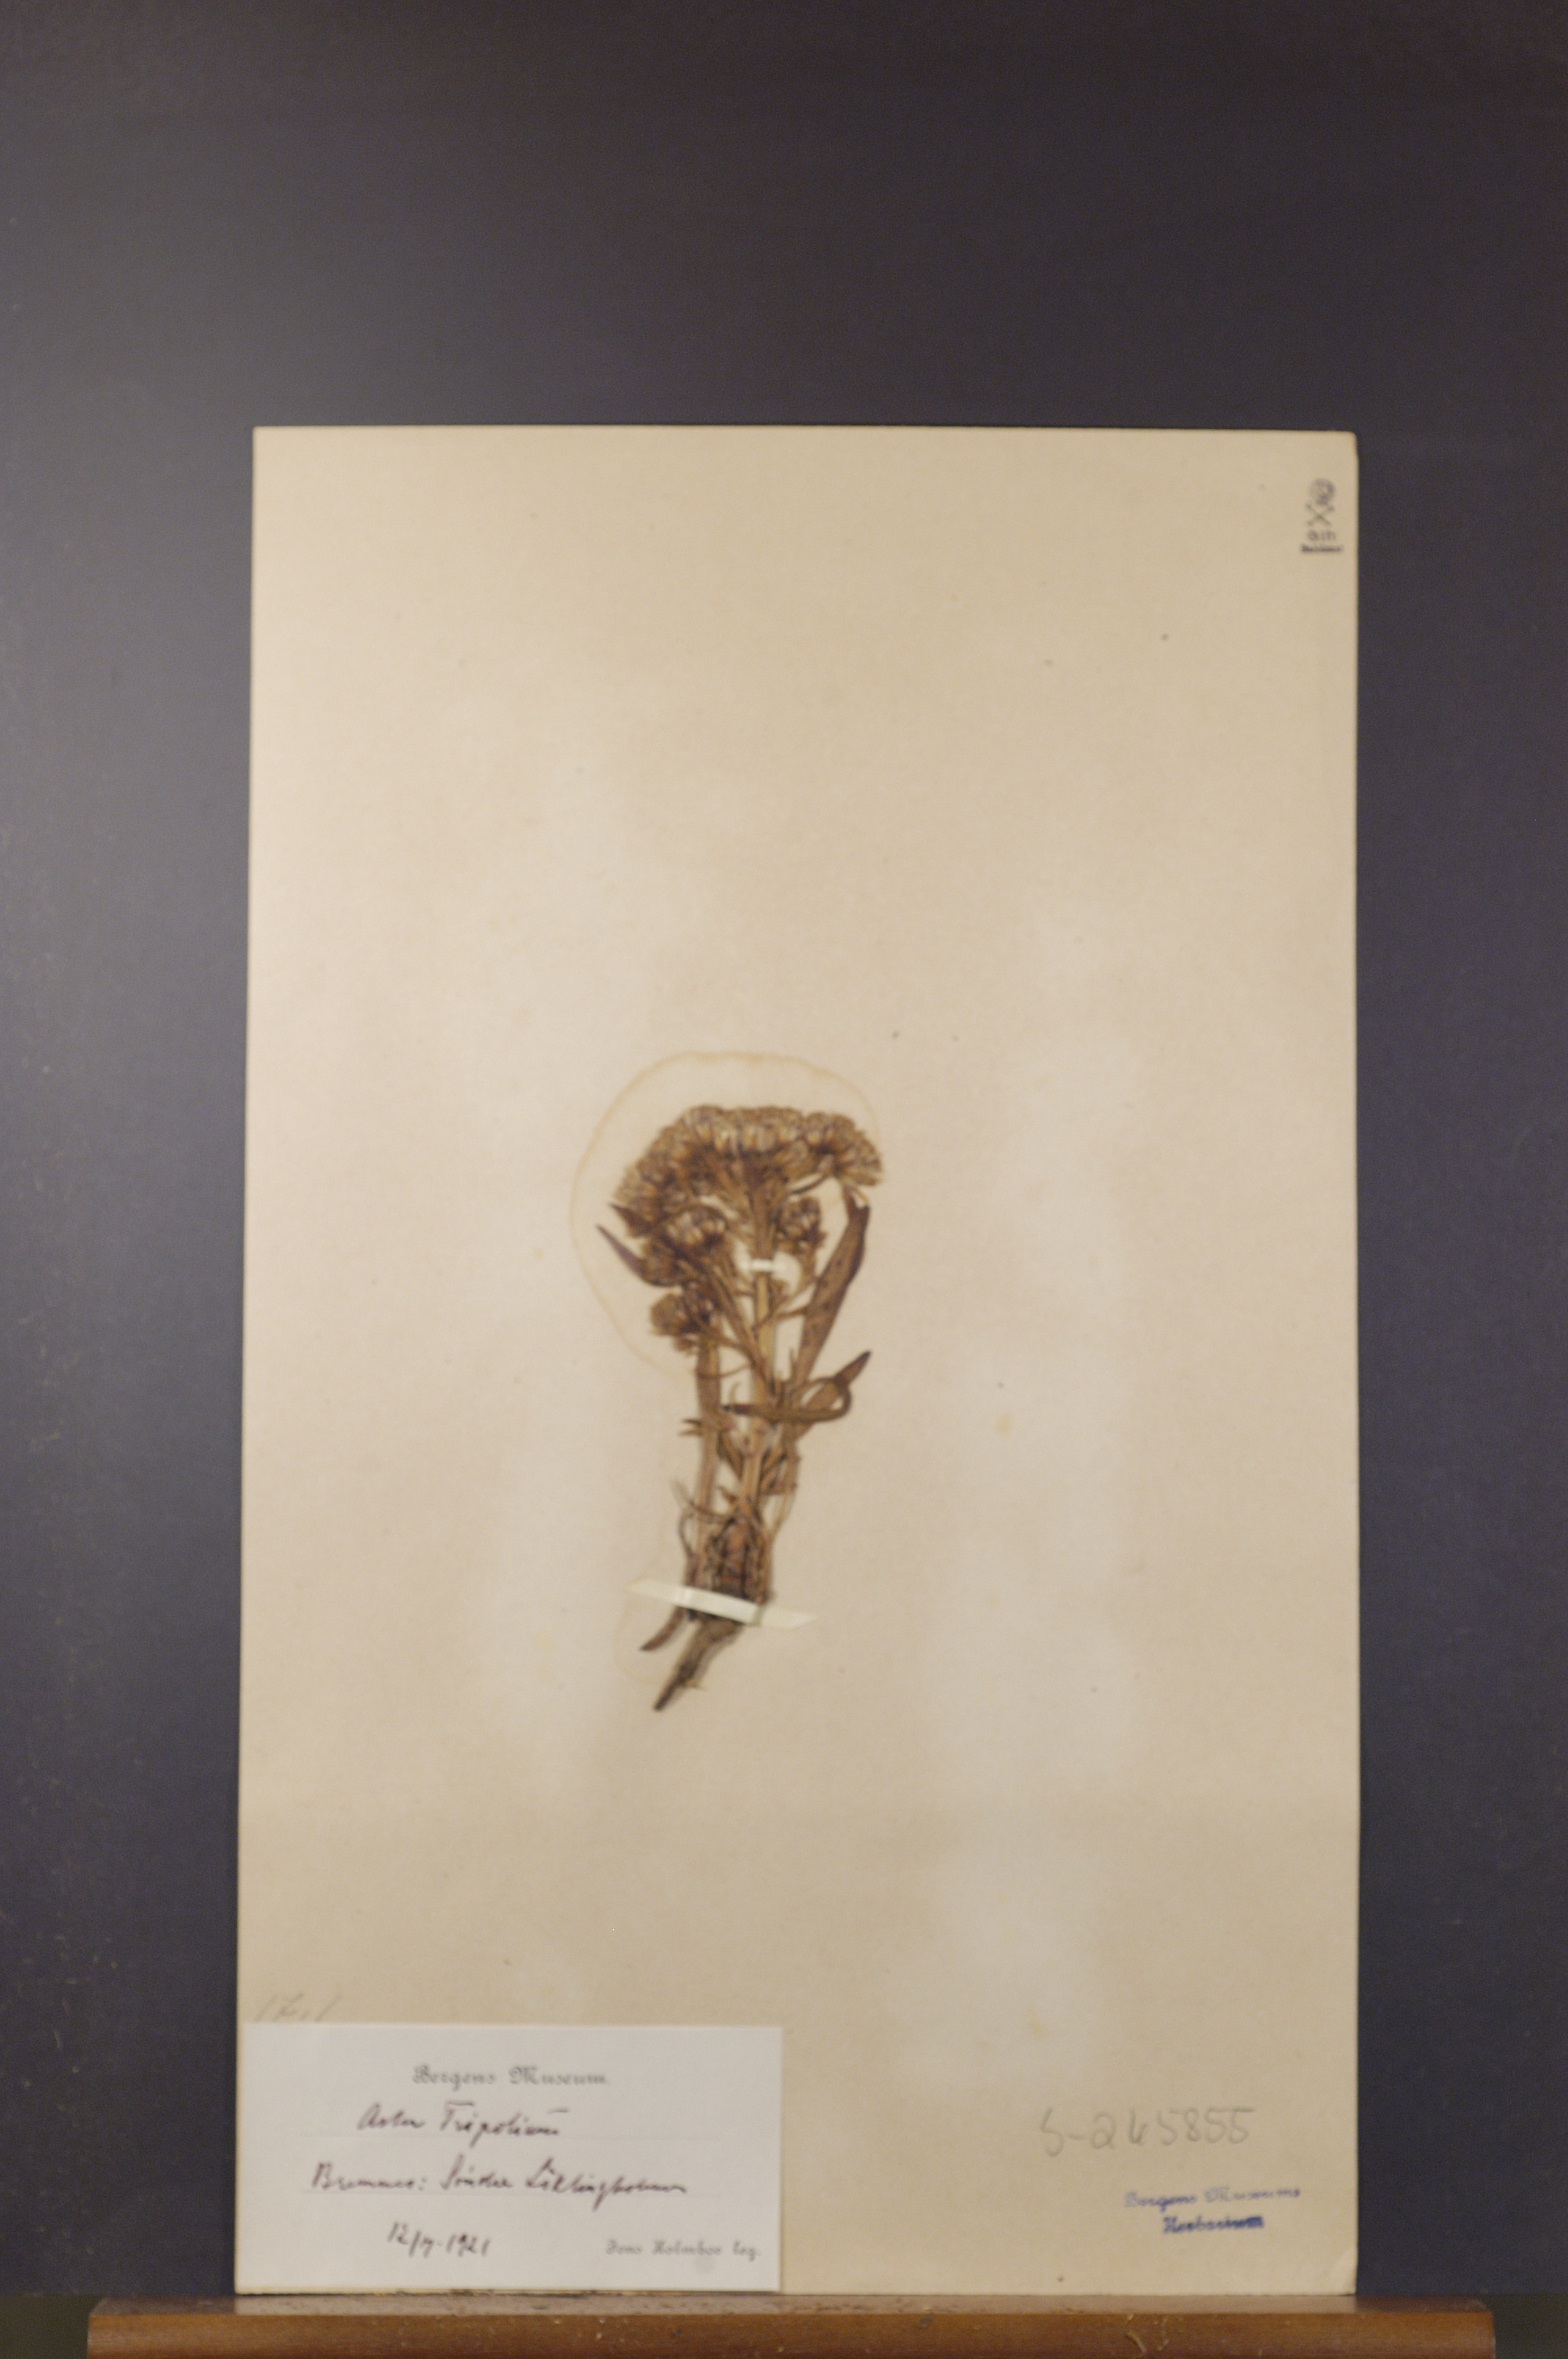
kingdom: Plantae
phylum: Tracheophyta
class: Magnoliopsida
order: Asterales
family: Asteraceae
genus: Tripolium
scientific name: Tripolium pannonicum
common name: Sea aster
